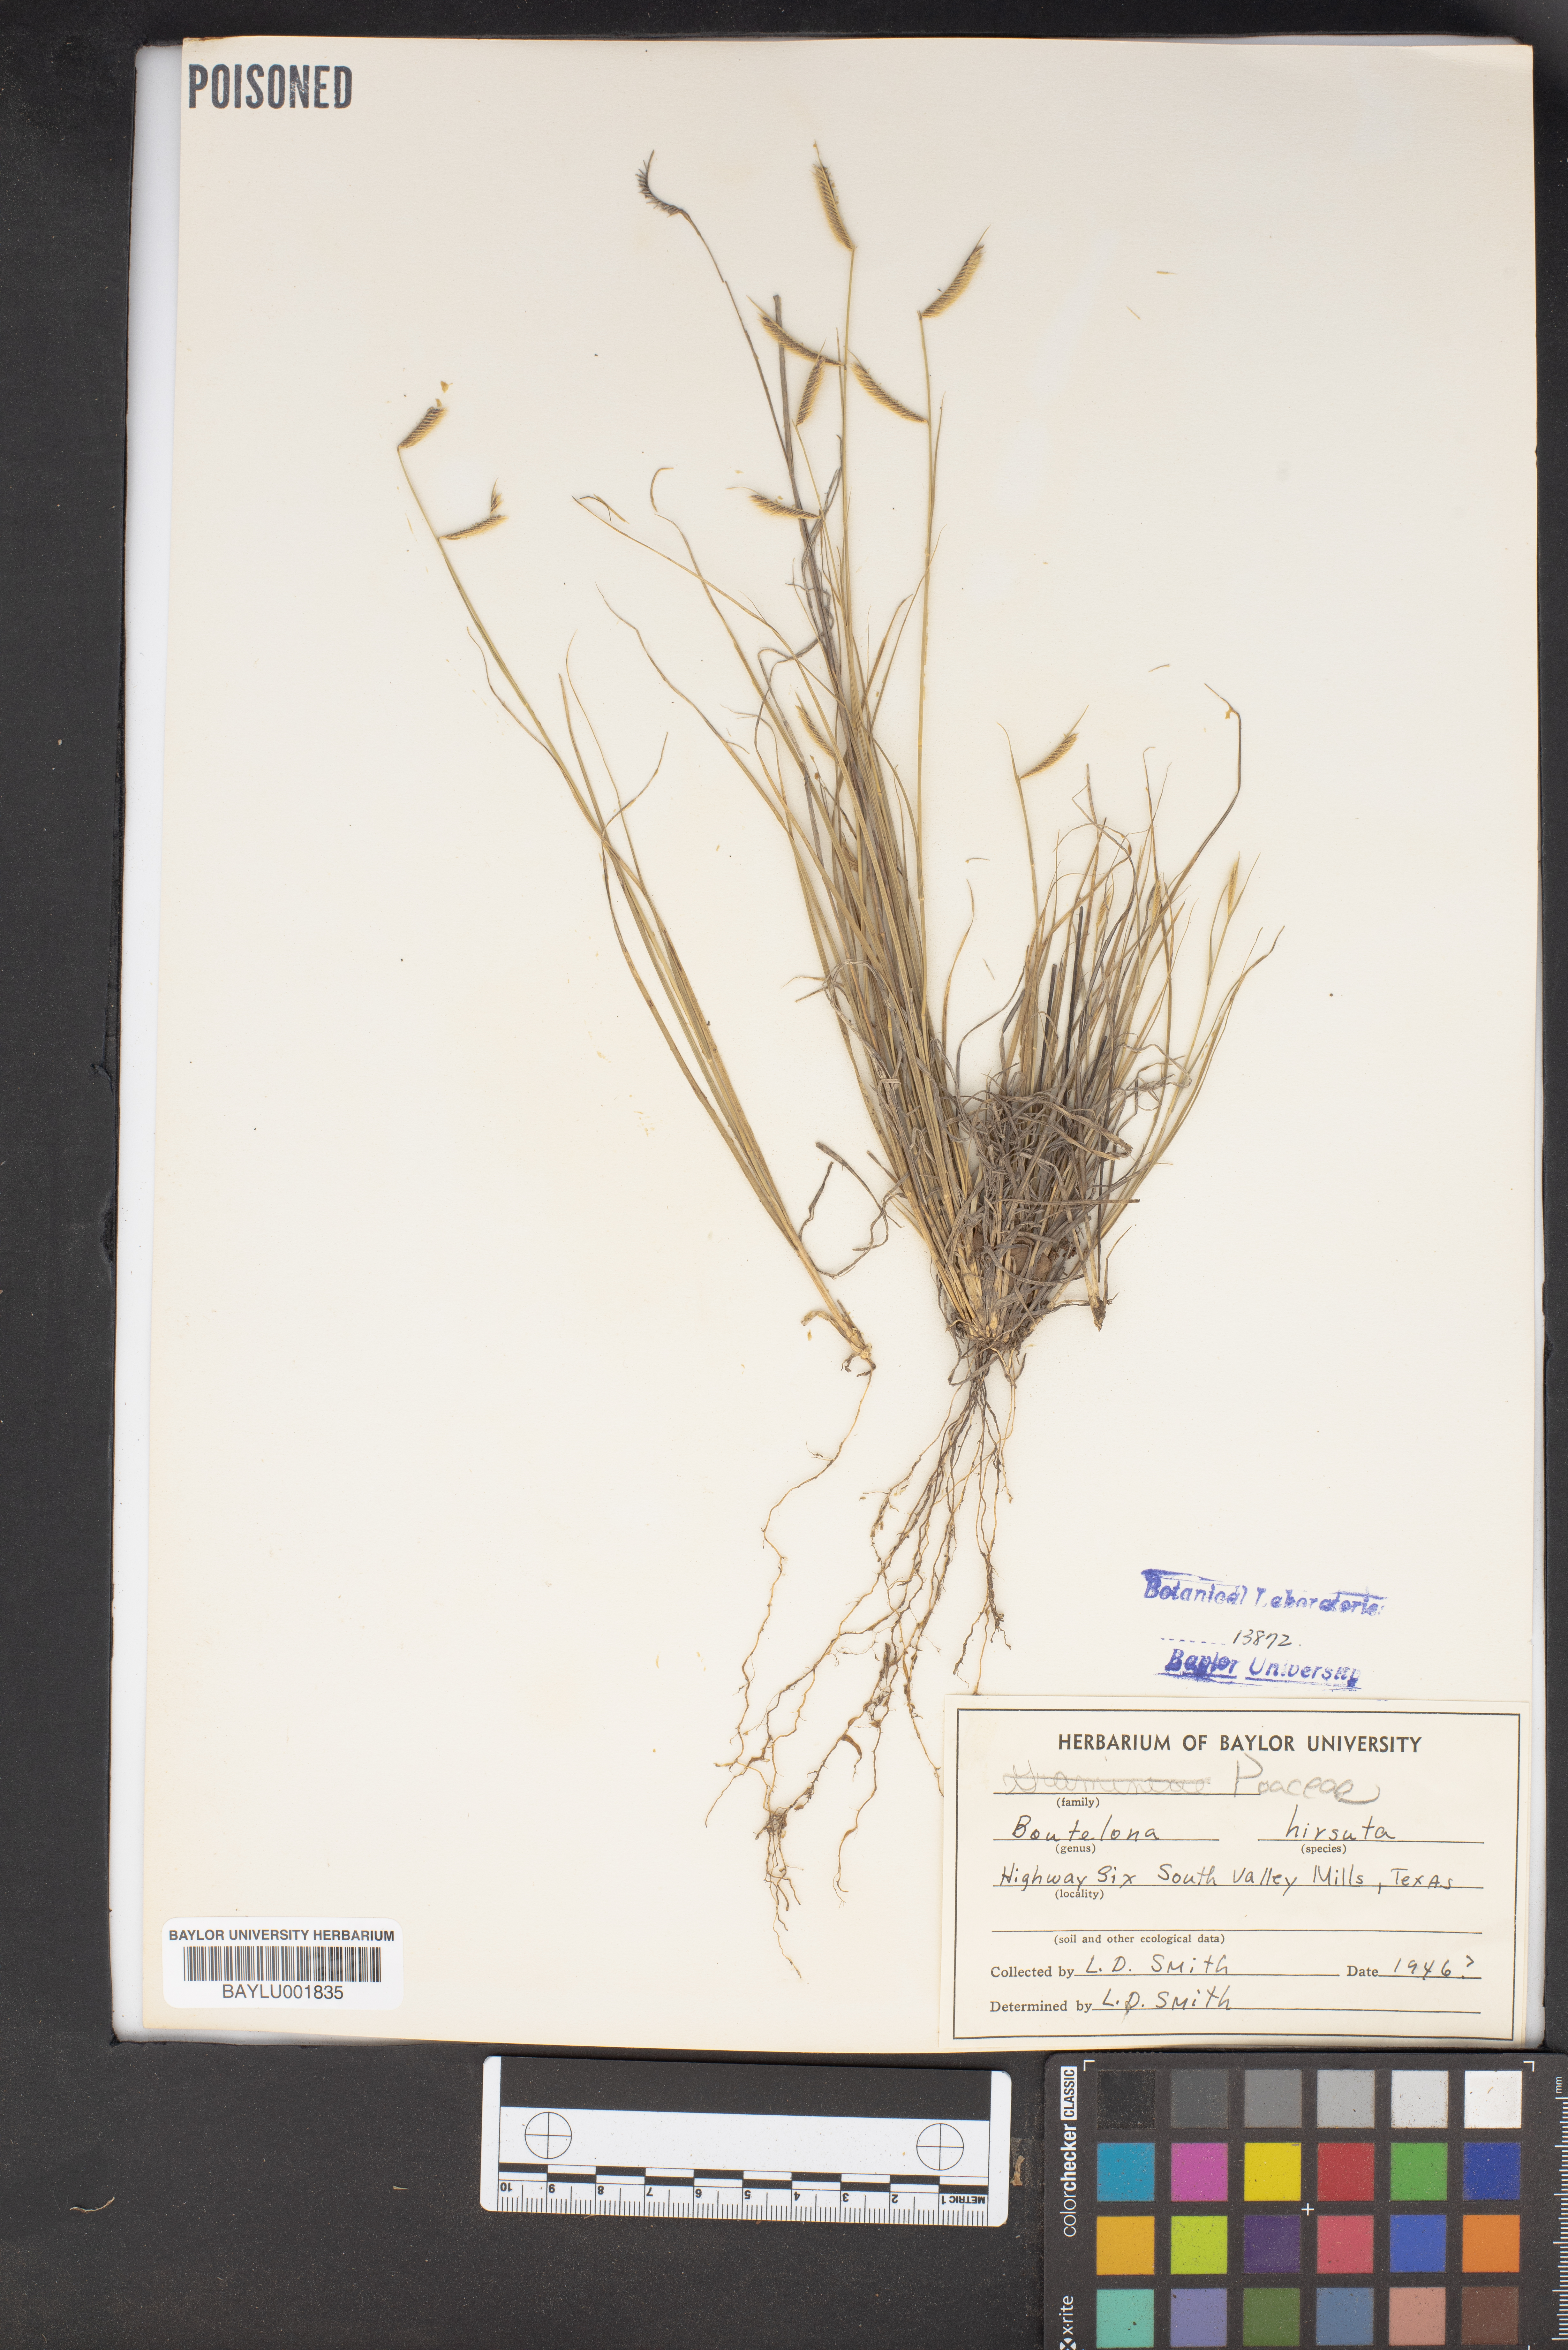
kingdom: Plantae
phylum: Tracheophyta
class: Liliopsida
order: Poales
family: Poaceae
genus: Bouteloua
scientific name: Bouteloua hirsuta
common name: Hairy grama
